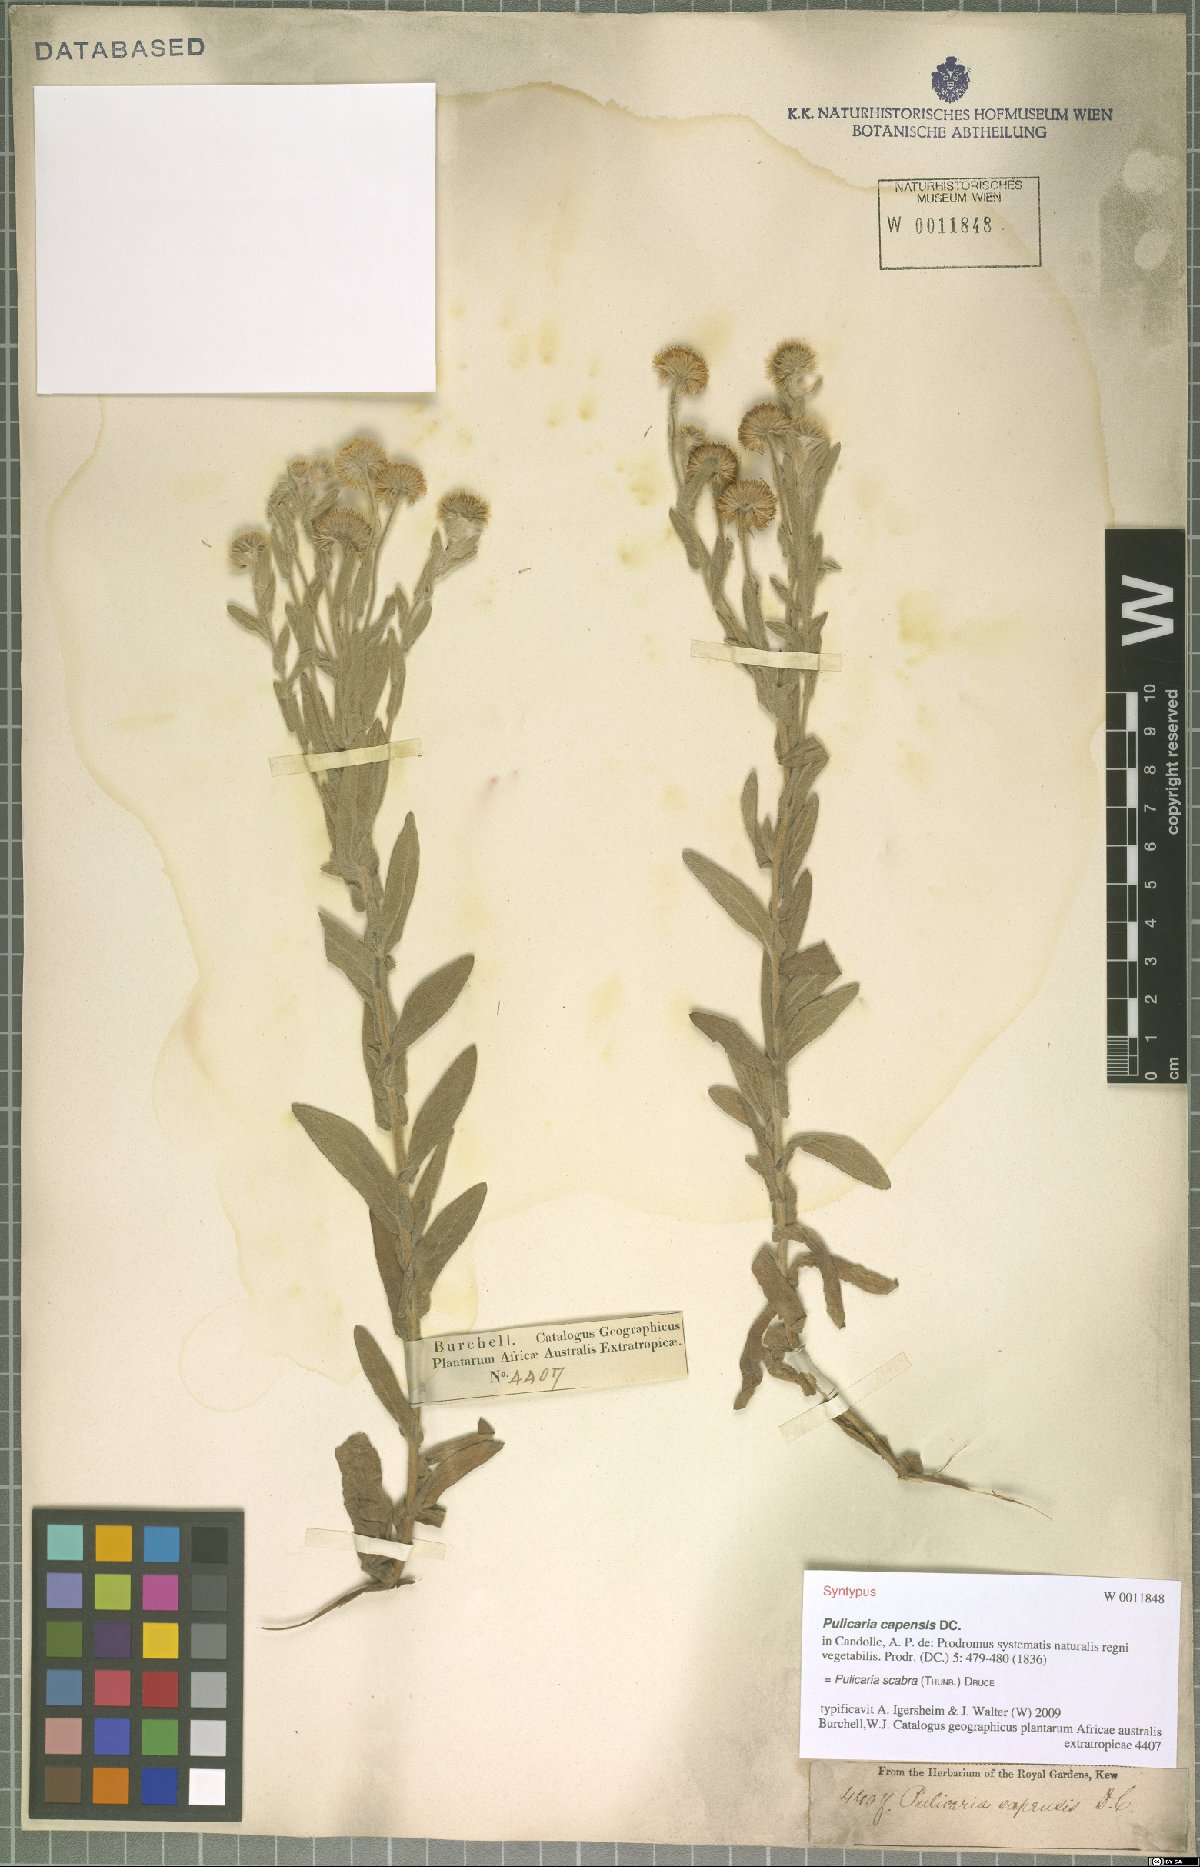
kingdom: Plantae
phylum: Tracheophyta
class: Magnoliopsida
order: Asterales
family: Asteraceae
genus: Pulicaria
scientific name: Pulicaria scabra
